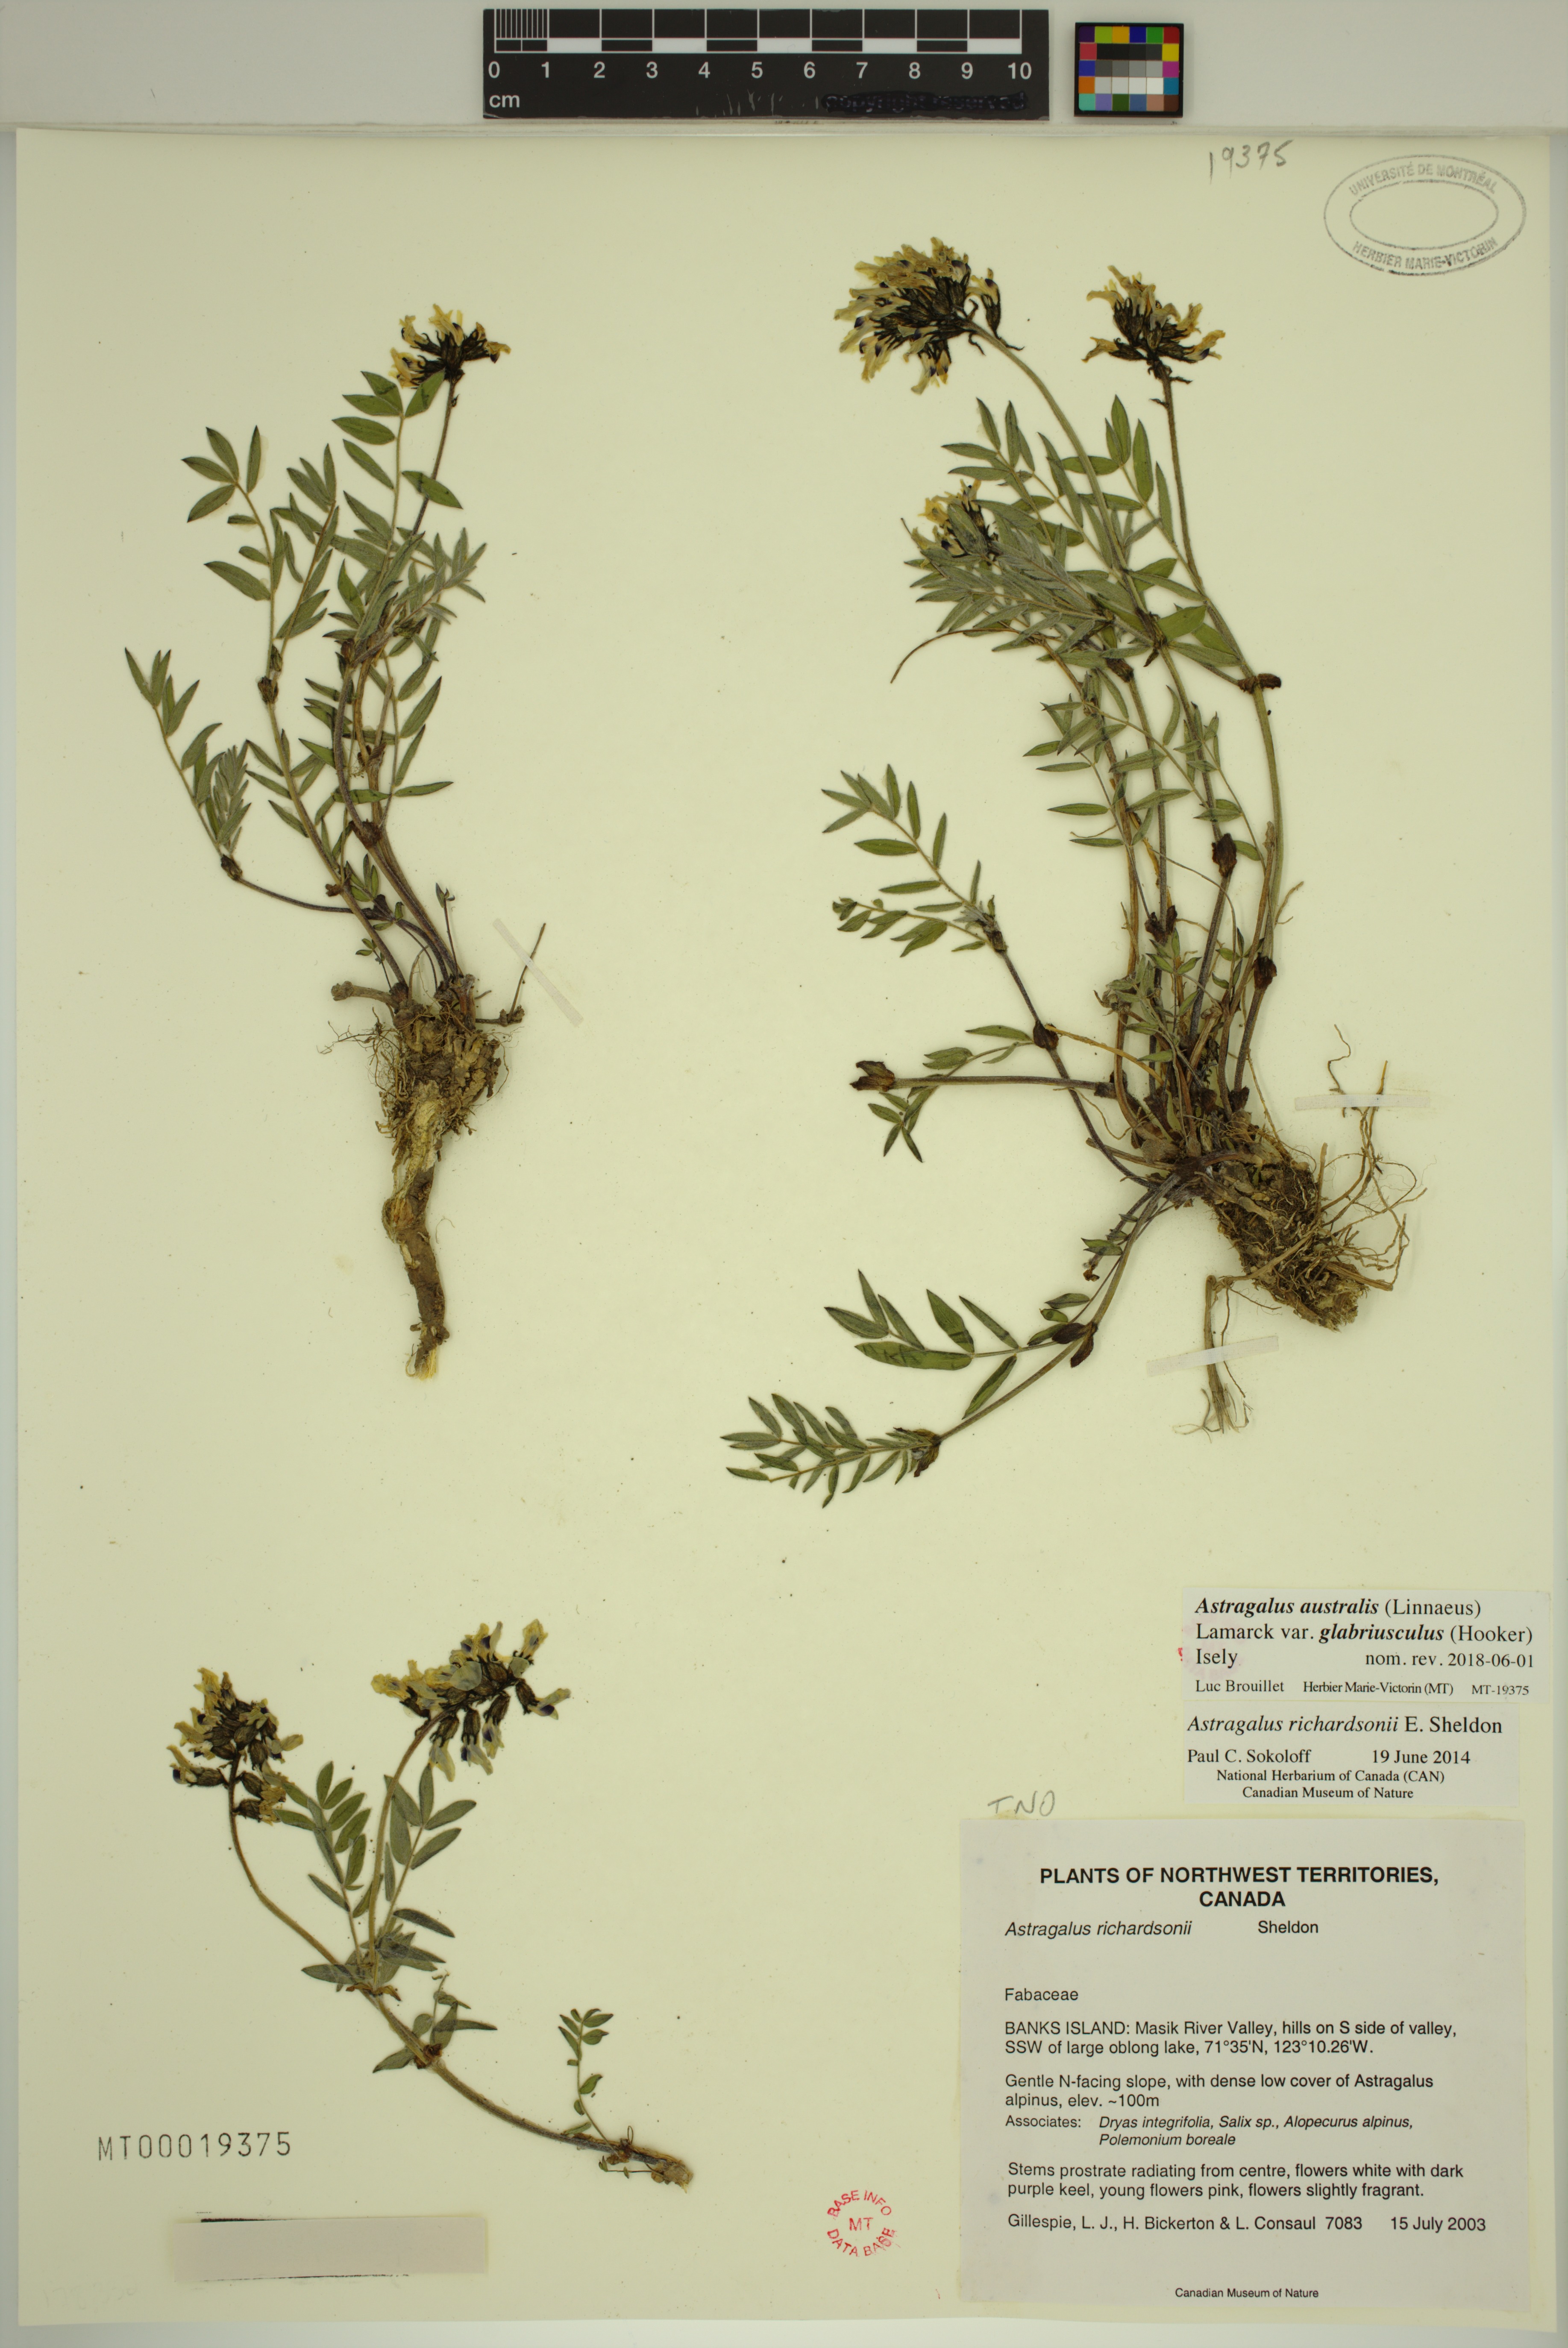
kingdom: Plantae
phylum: Tracheophyta
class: Magnoliopsida
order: Fabales
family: Fabaceae
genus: Astragalus
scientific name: Astragalus aboriginorum
